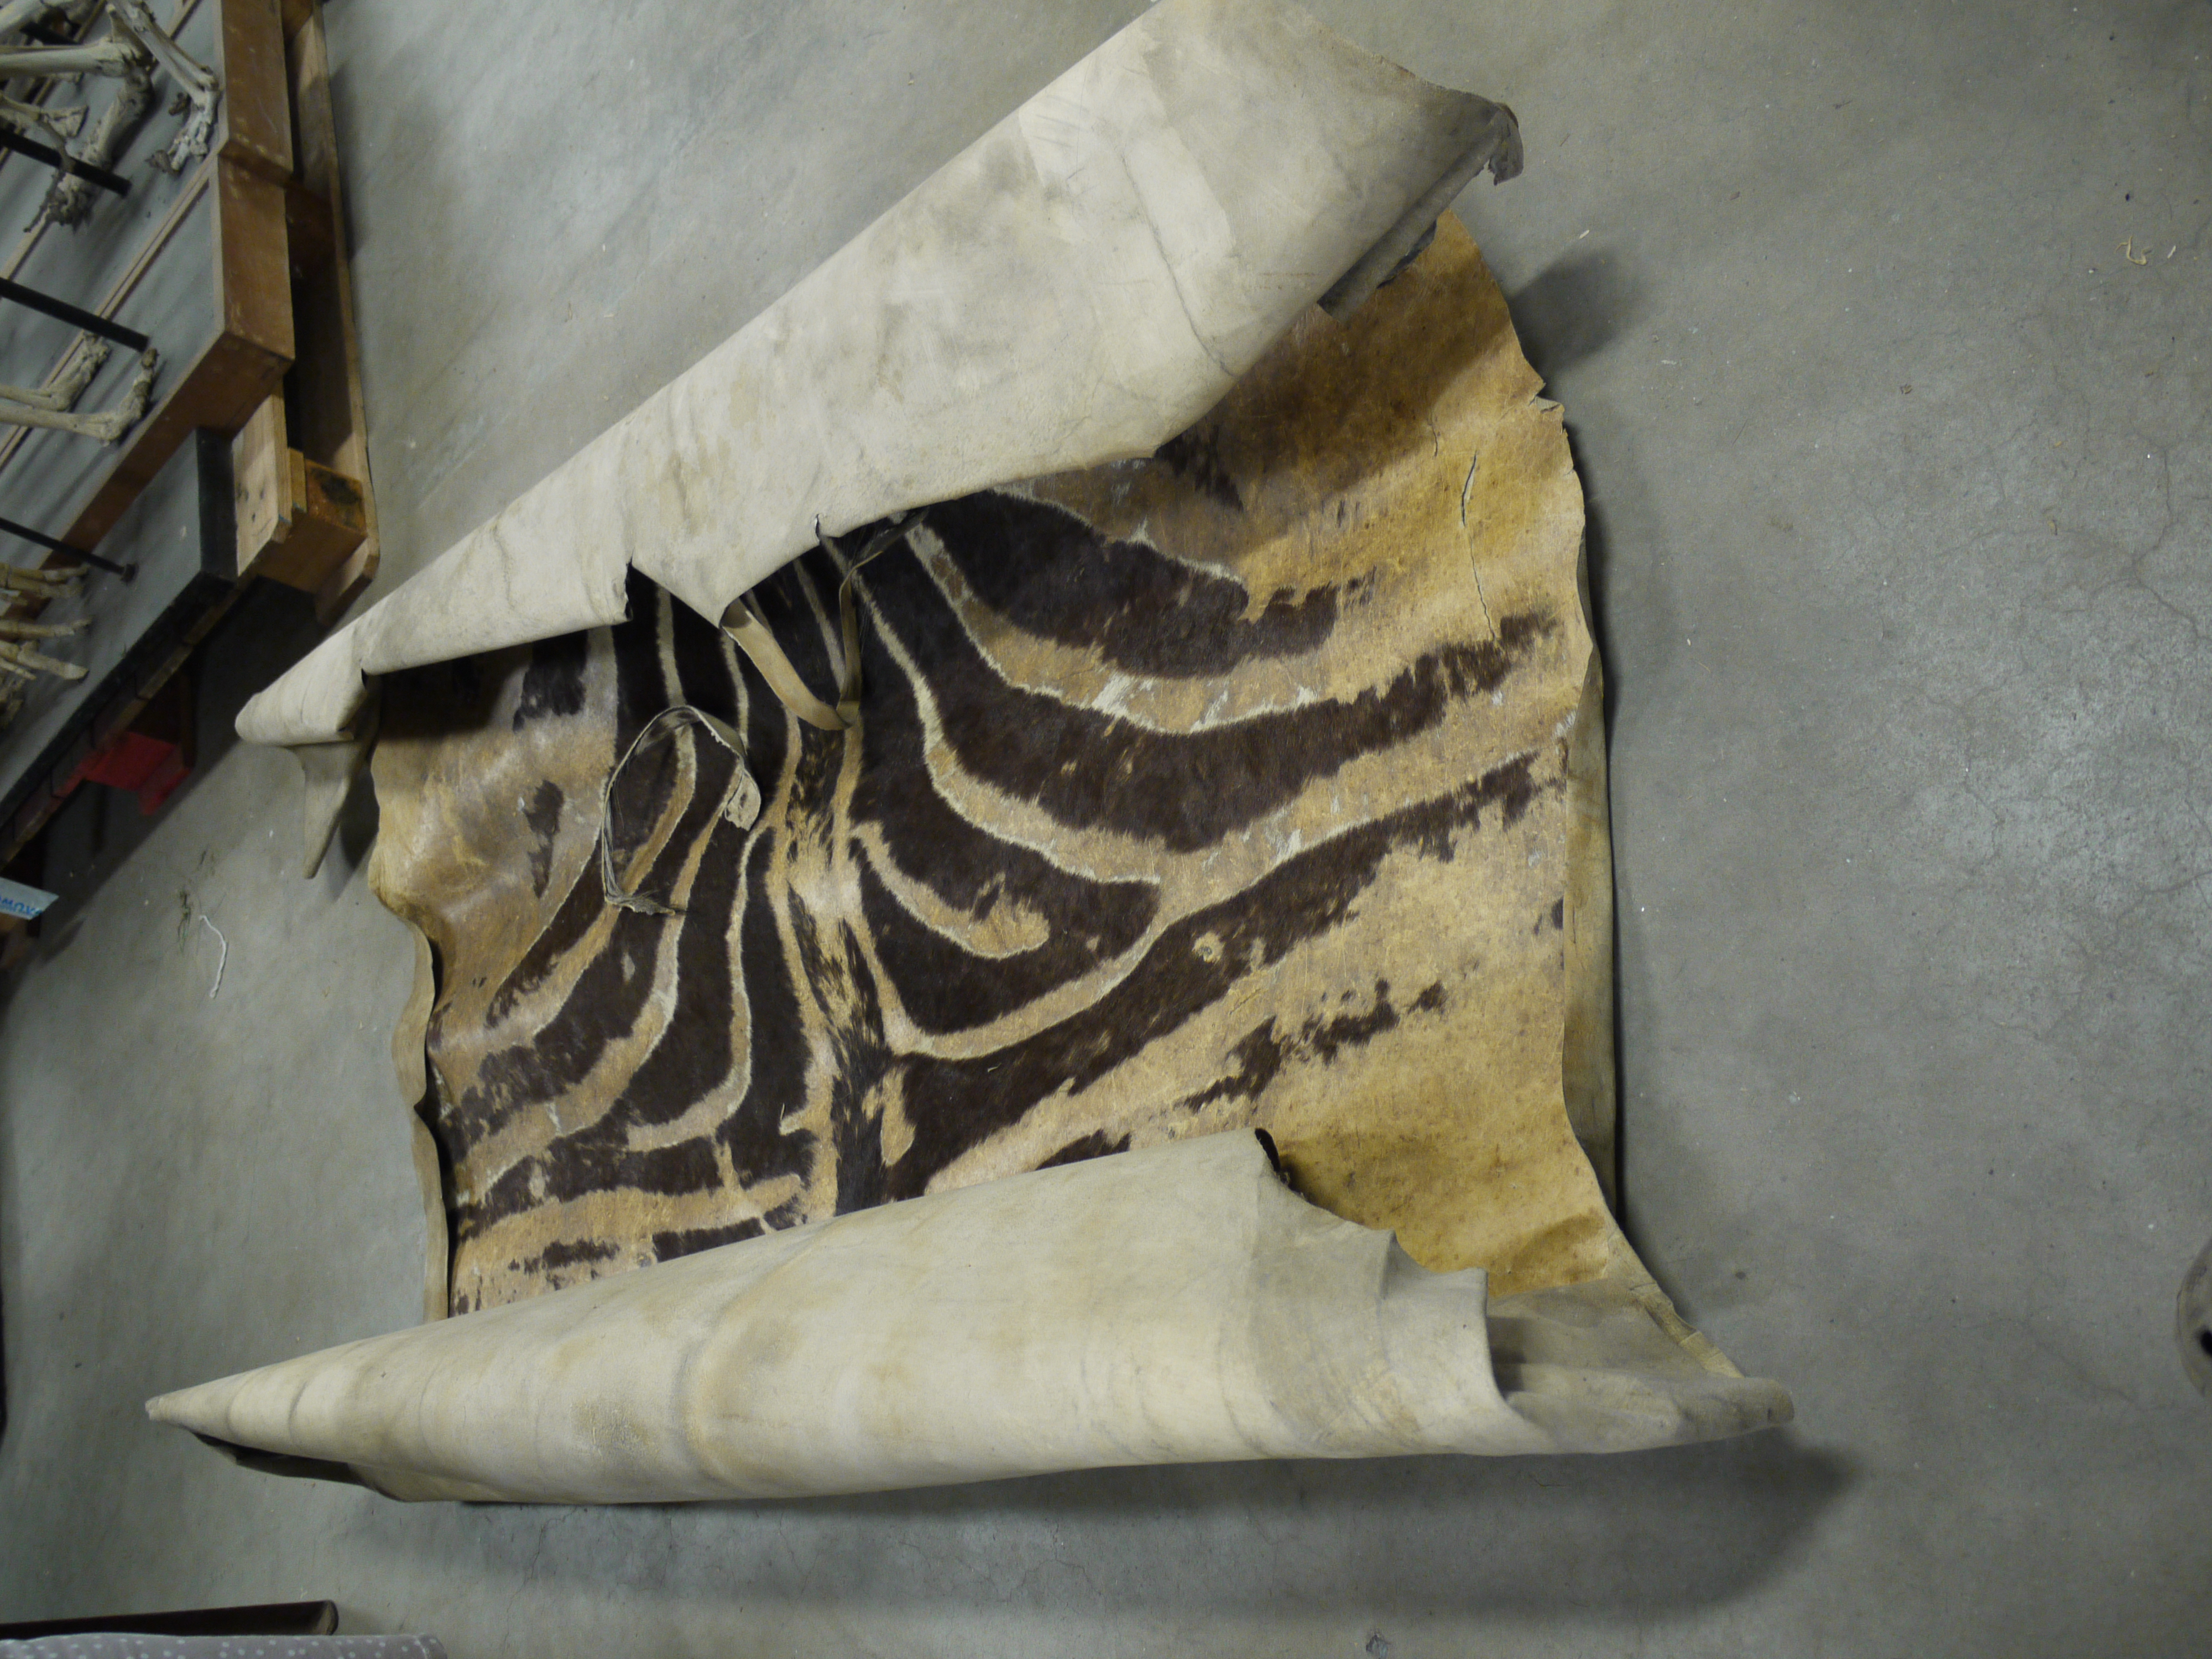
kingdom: Animalia
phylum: Chordata
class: Mammalia
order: Perissodactyla
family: Equidae
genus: Equus
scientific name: Equus quagga
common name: Plains zebra
